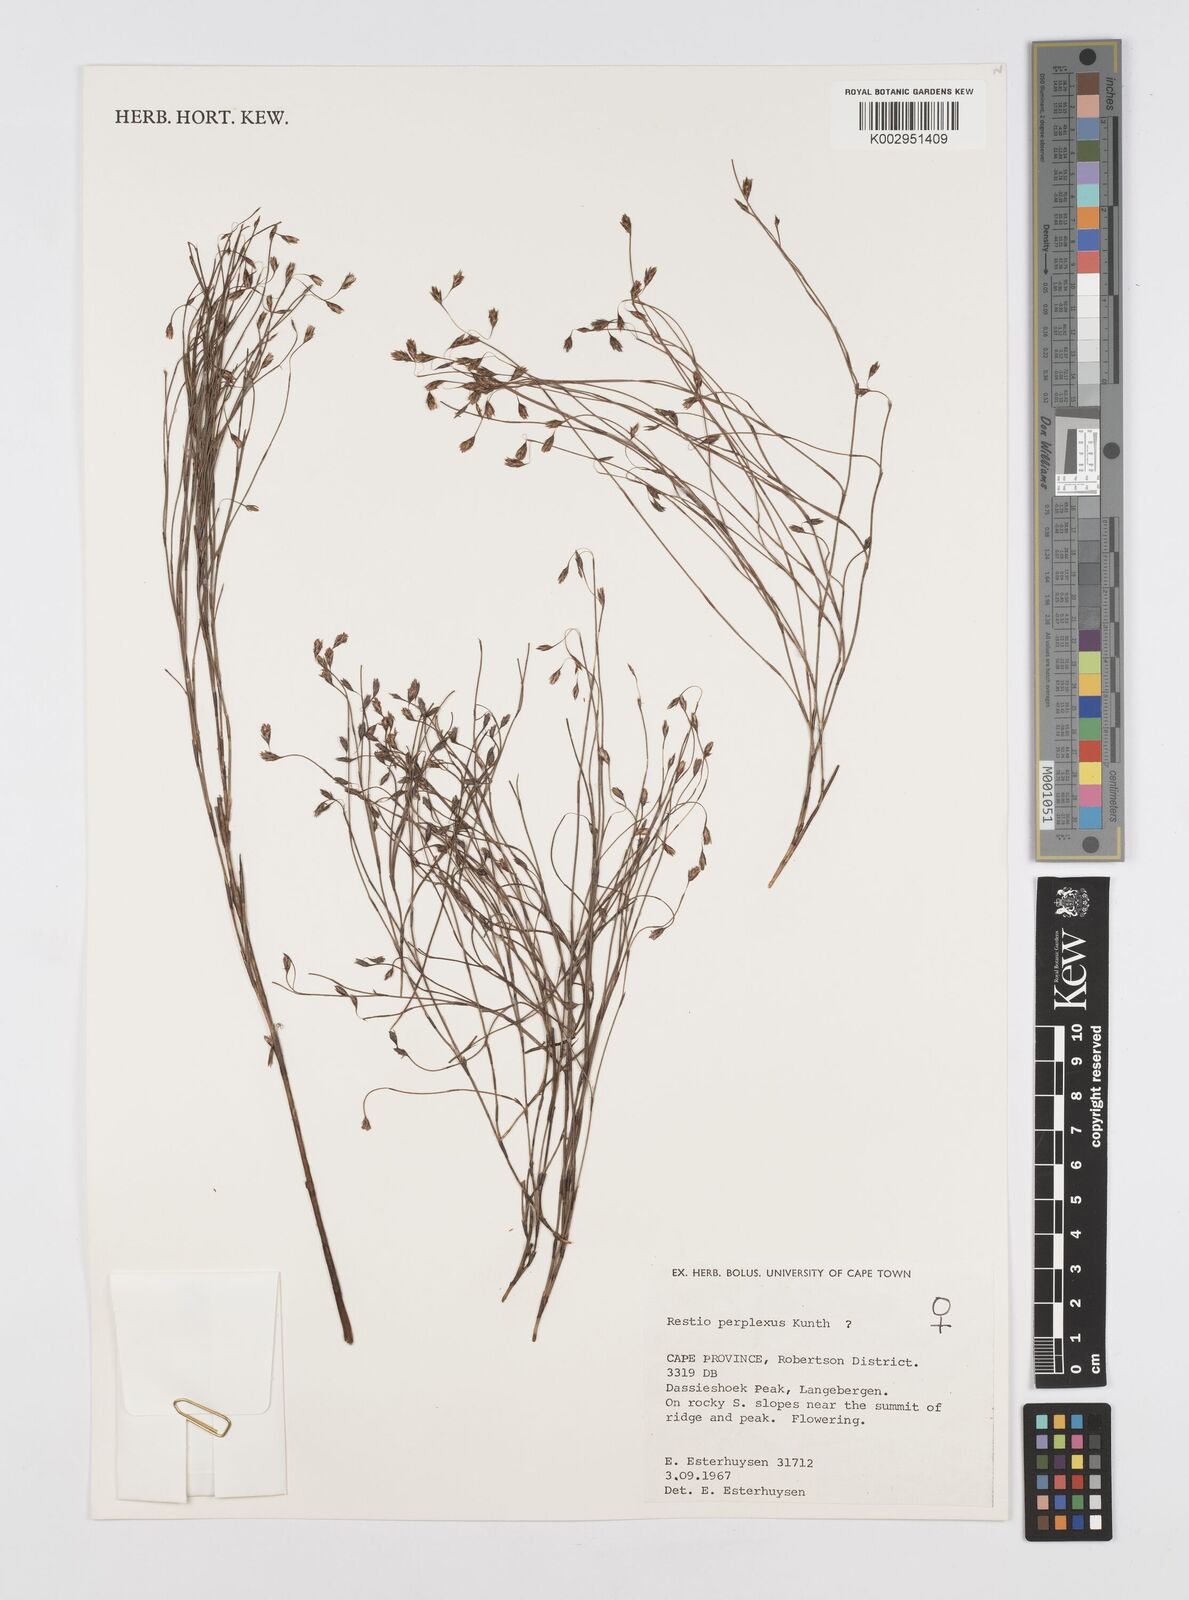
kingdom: Plantae
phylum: Tracheophyta
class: Liliopsida
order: Poales
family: Restionaceae
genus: Restio
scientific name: Restio perplexus
